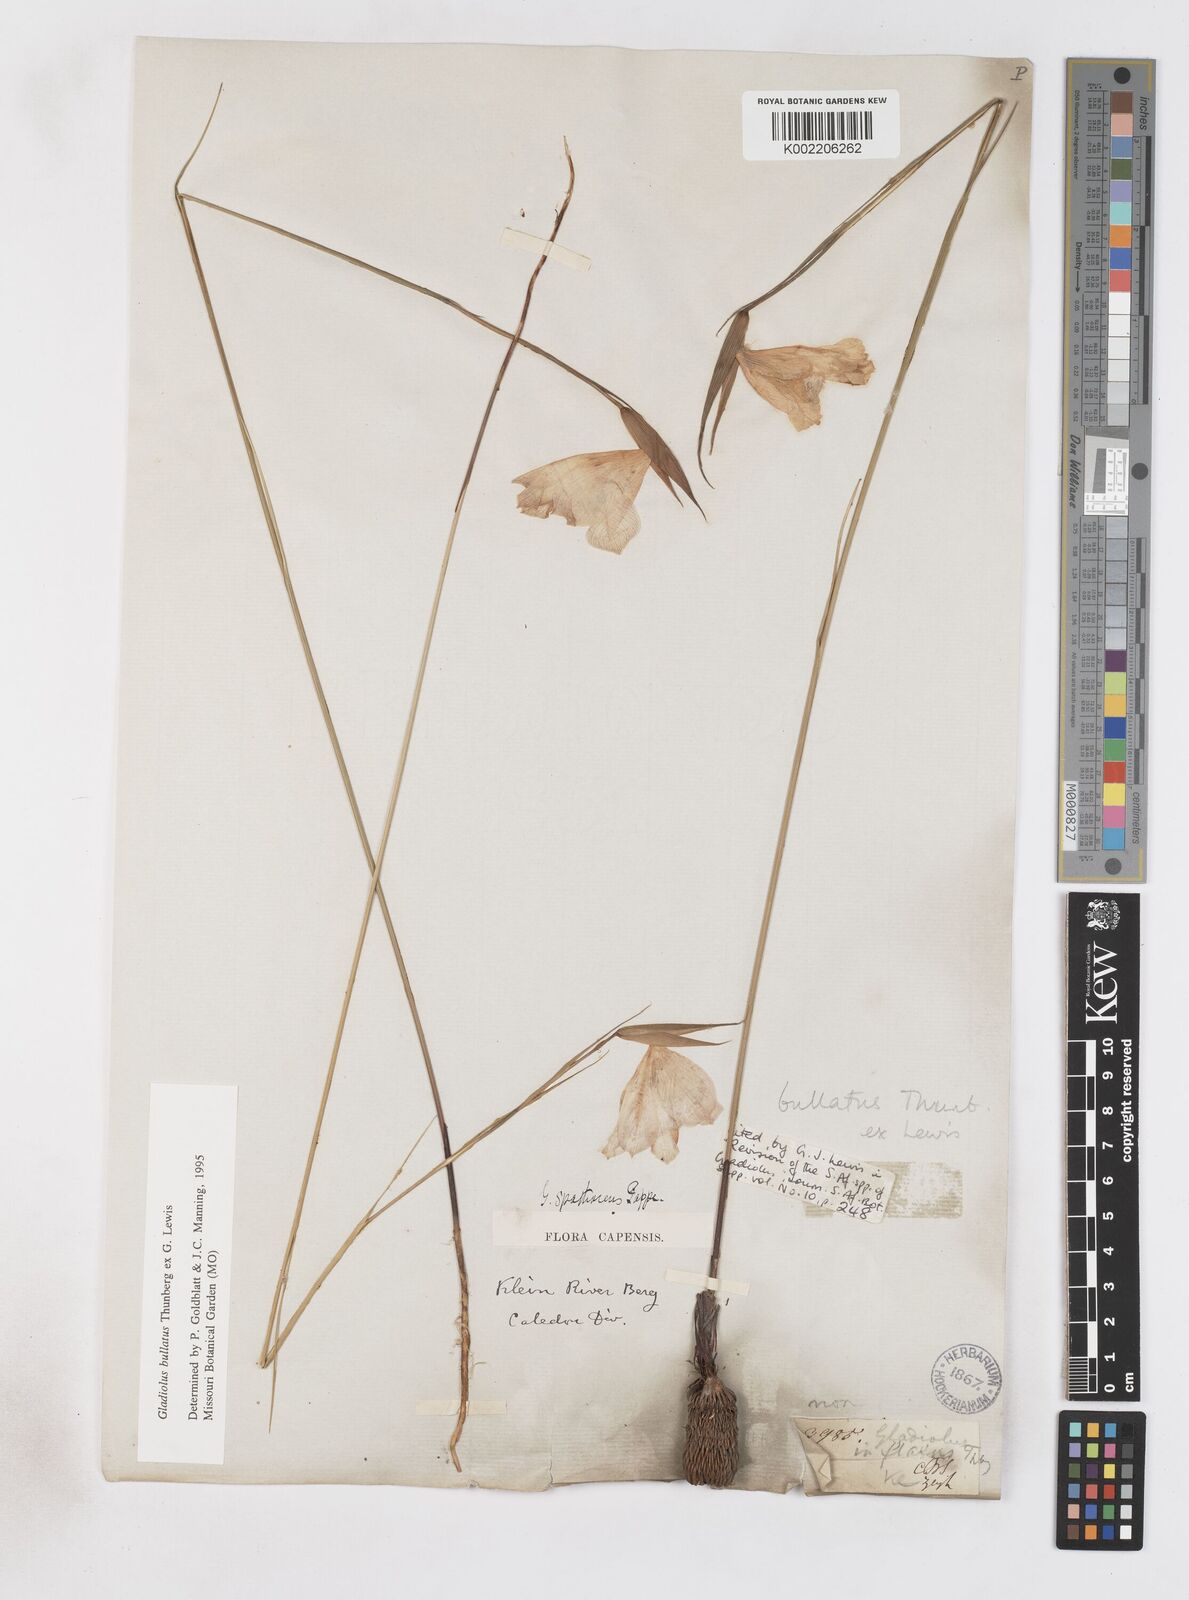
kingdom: Plantae
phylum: Tracheophyta
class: Liliopsida
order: Asparagales
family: Iridaceae
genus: Gladiolus
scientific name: Gladiolus bullatus
